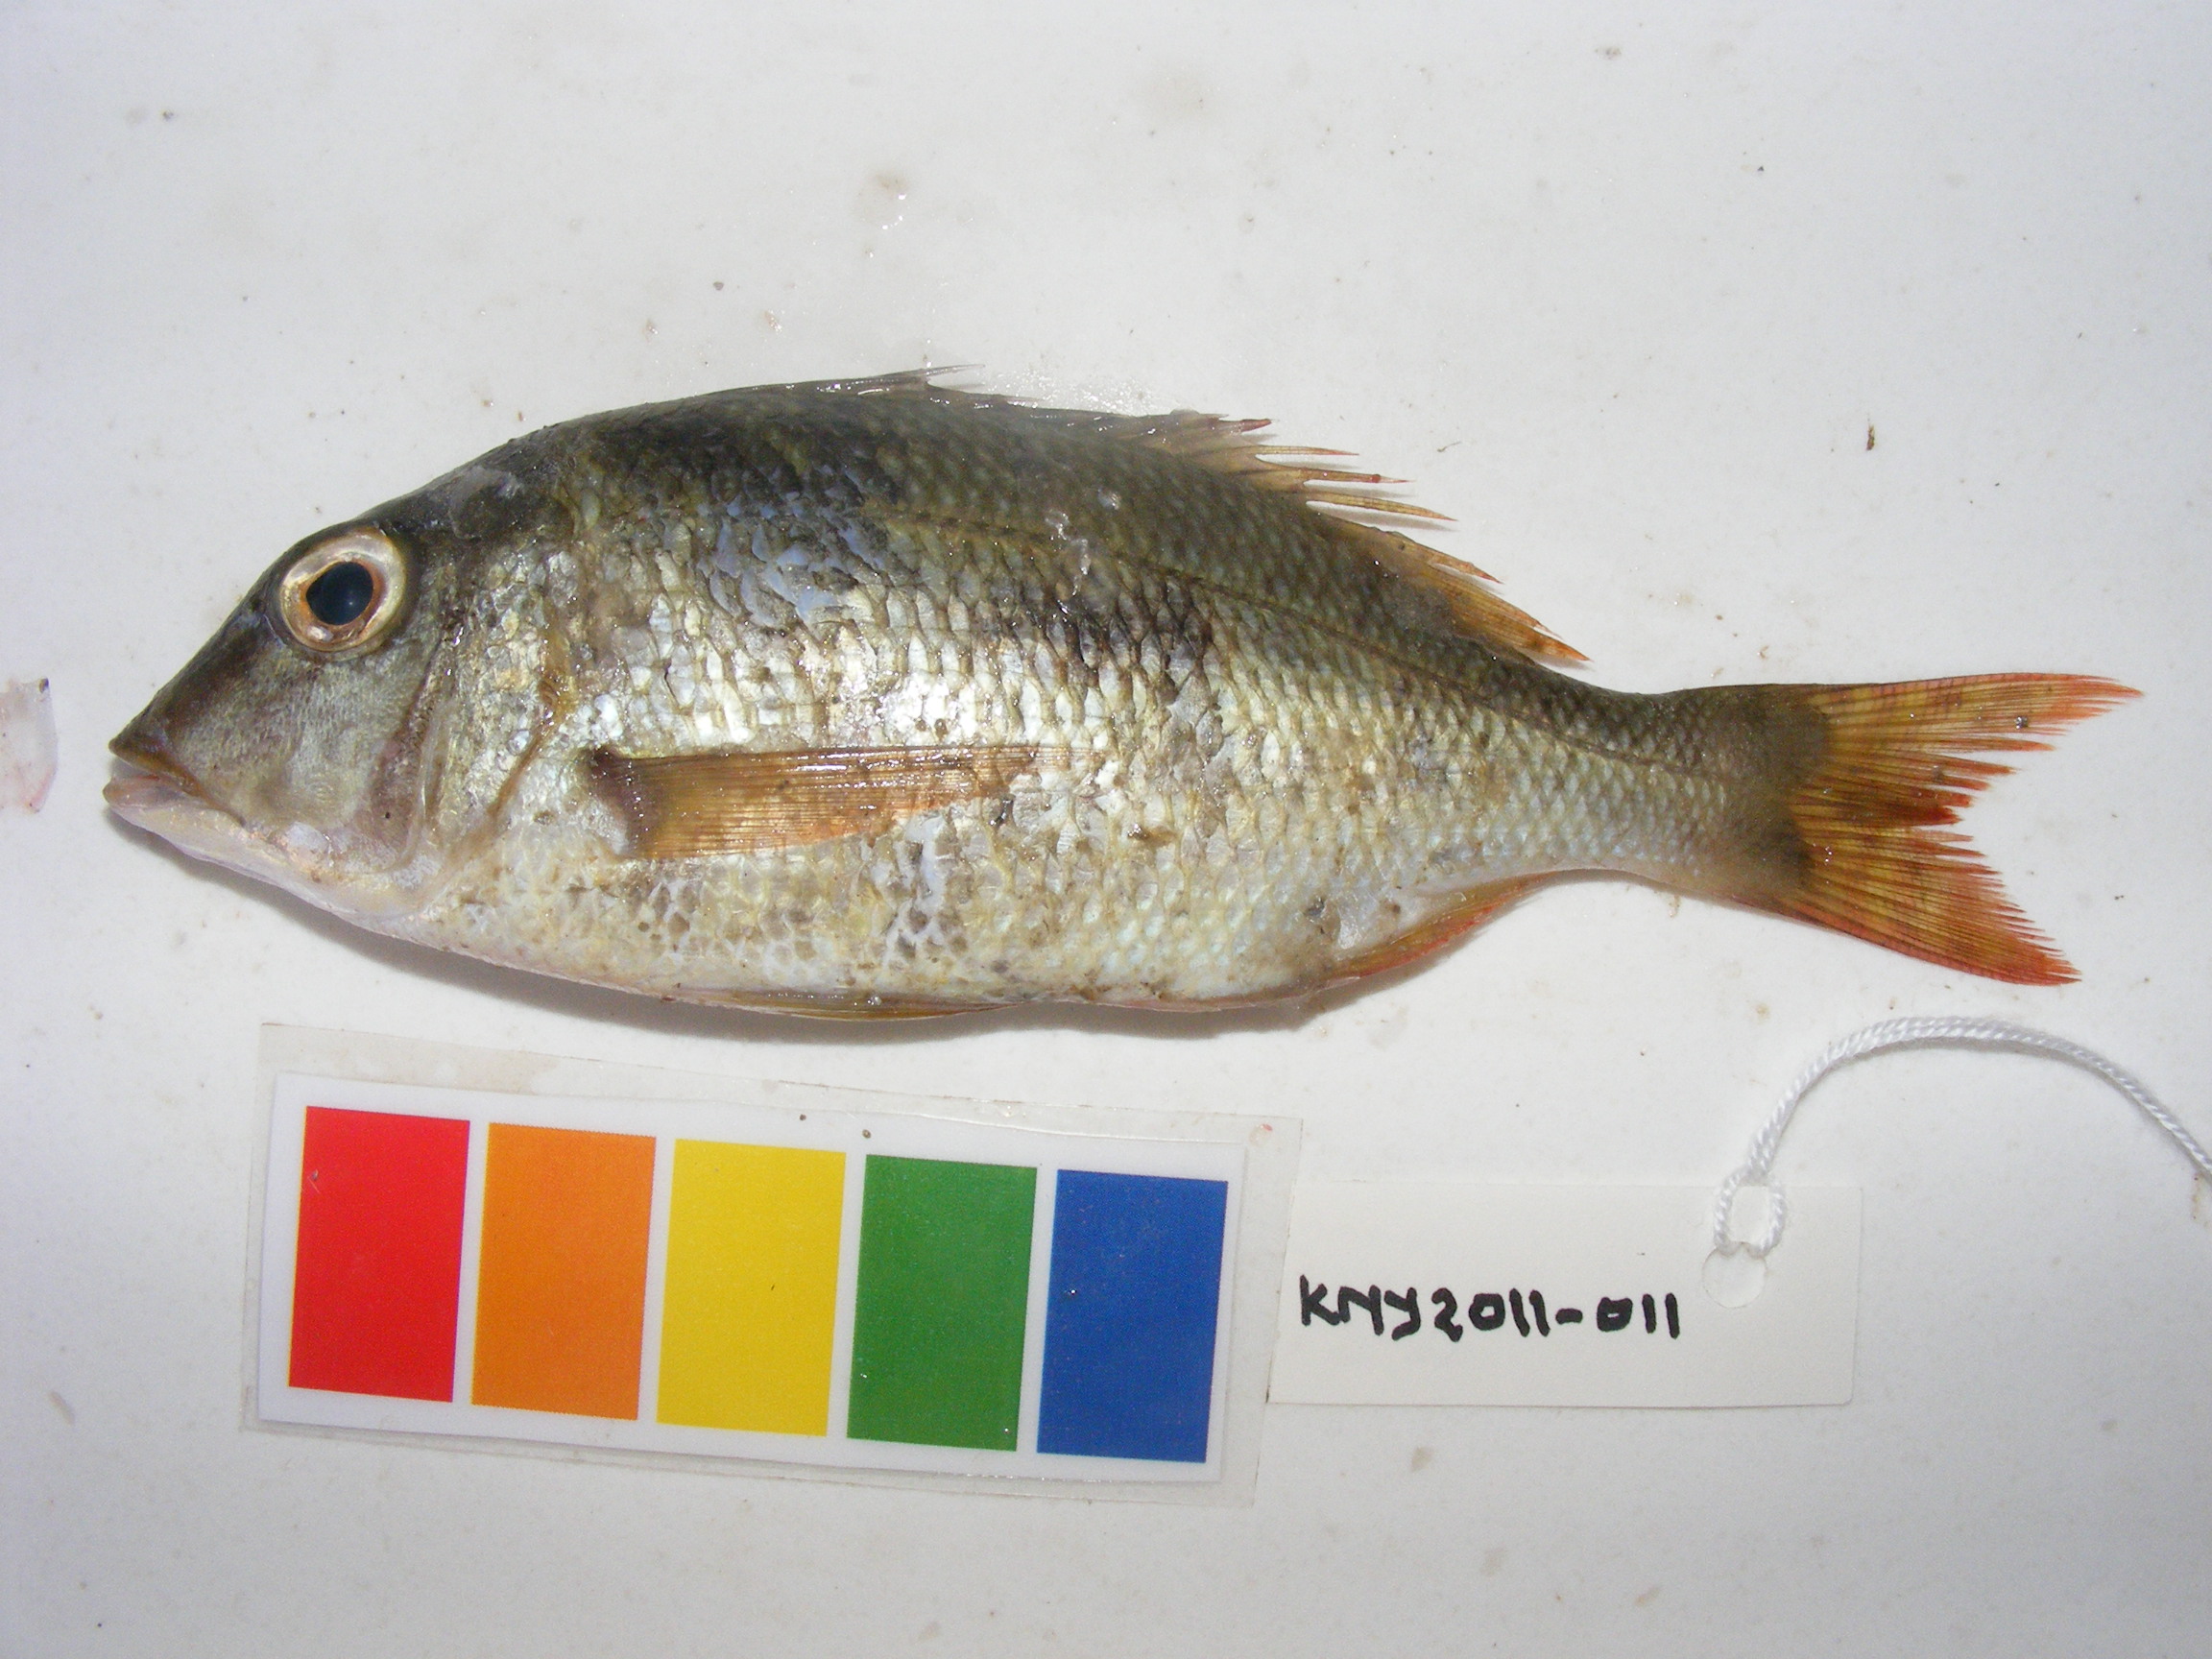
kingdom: Animalia
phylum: Chordata
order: Perciformes
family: Lethrinidae
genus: Lethrinus
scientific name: Lethrinus harak
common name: Blackspot emperor
